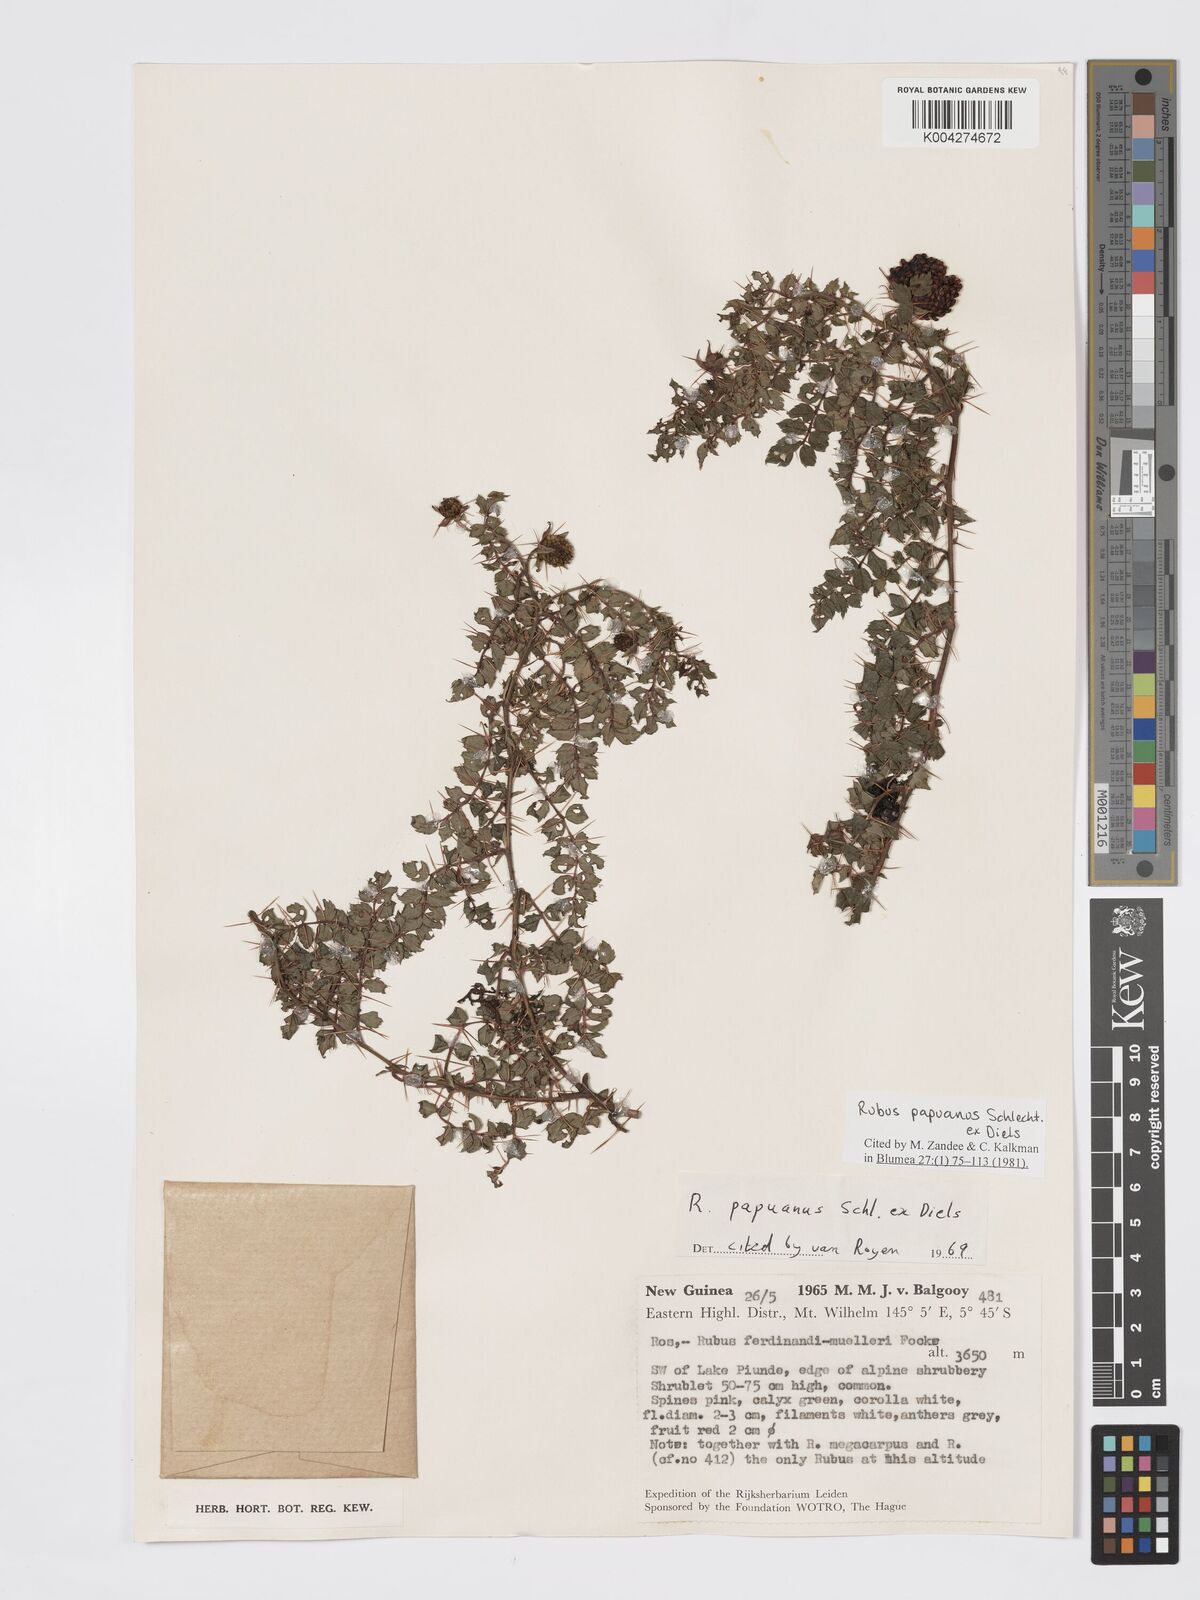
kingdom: Plantae
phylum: Tracheophyta
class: Magnoliopsida
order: Rosales
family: Rosaceae
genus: Rubus
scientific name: Rubus papuanus
